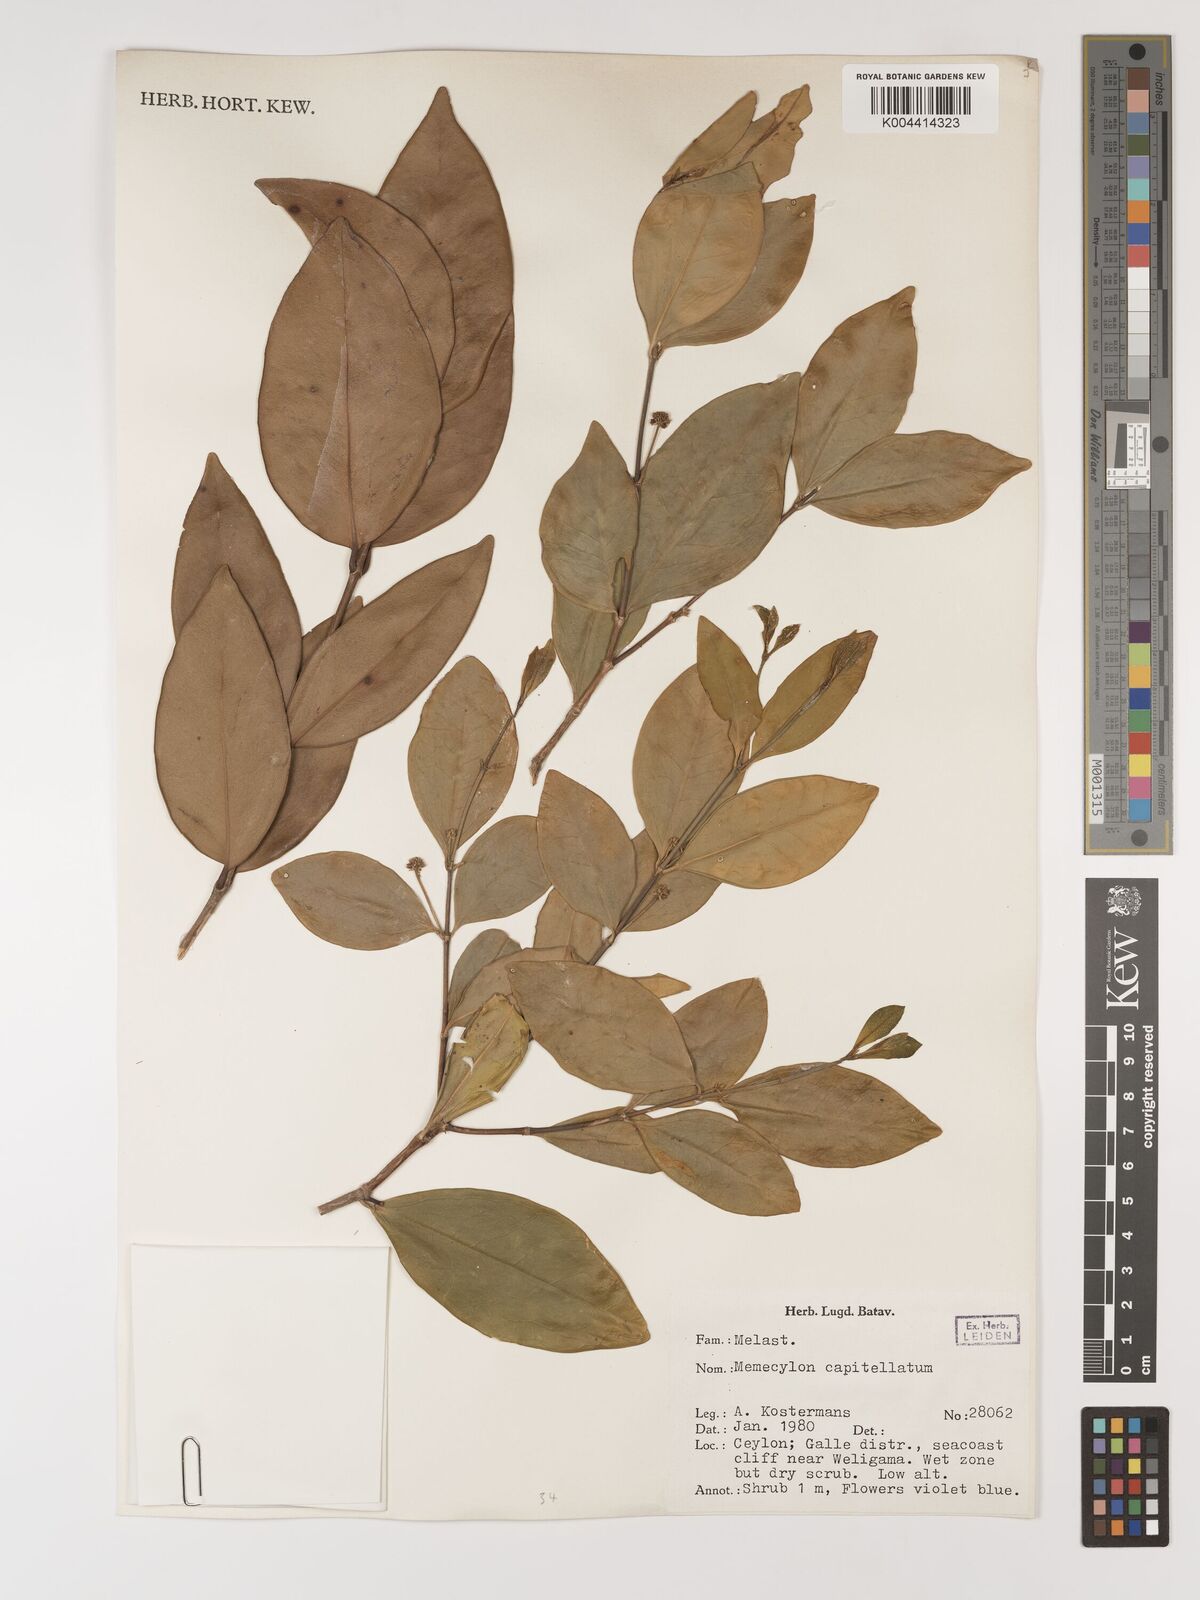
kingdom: Plantae
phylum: Tracheophyta
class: Magnoliopsida
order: Myrtales
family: Melastomataceae
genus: Memecylon
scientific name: Memecylon capitellatum
